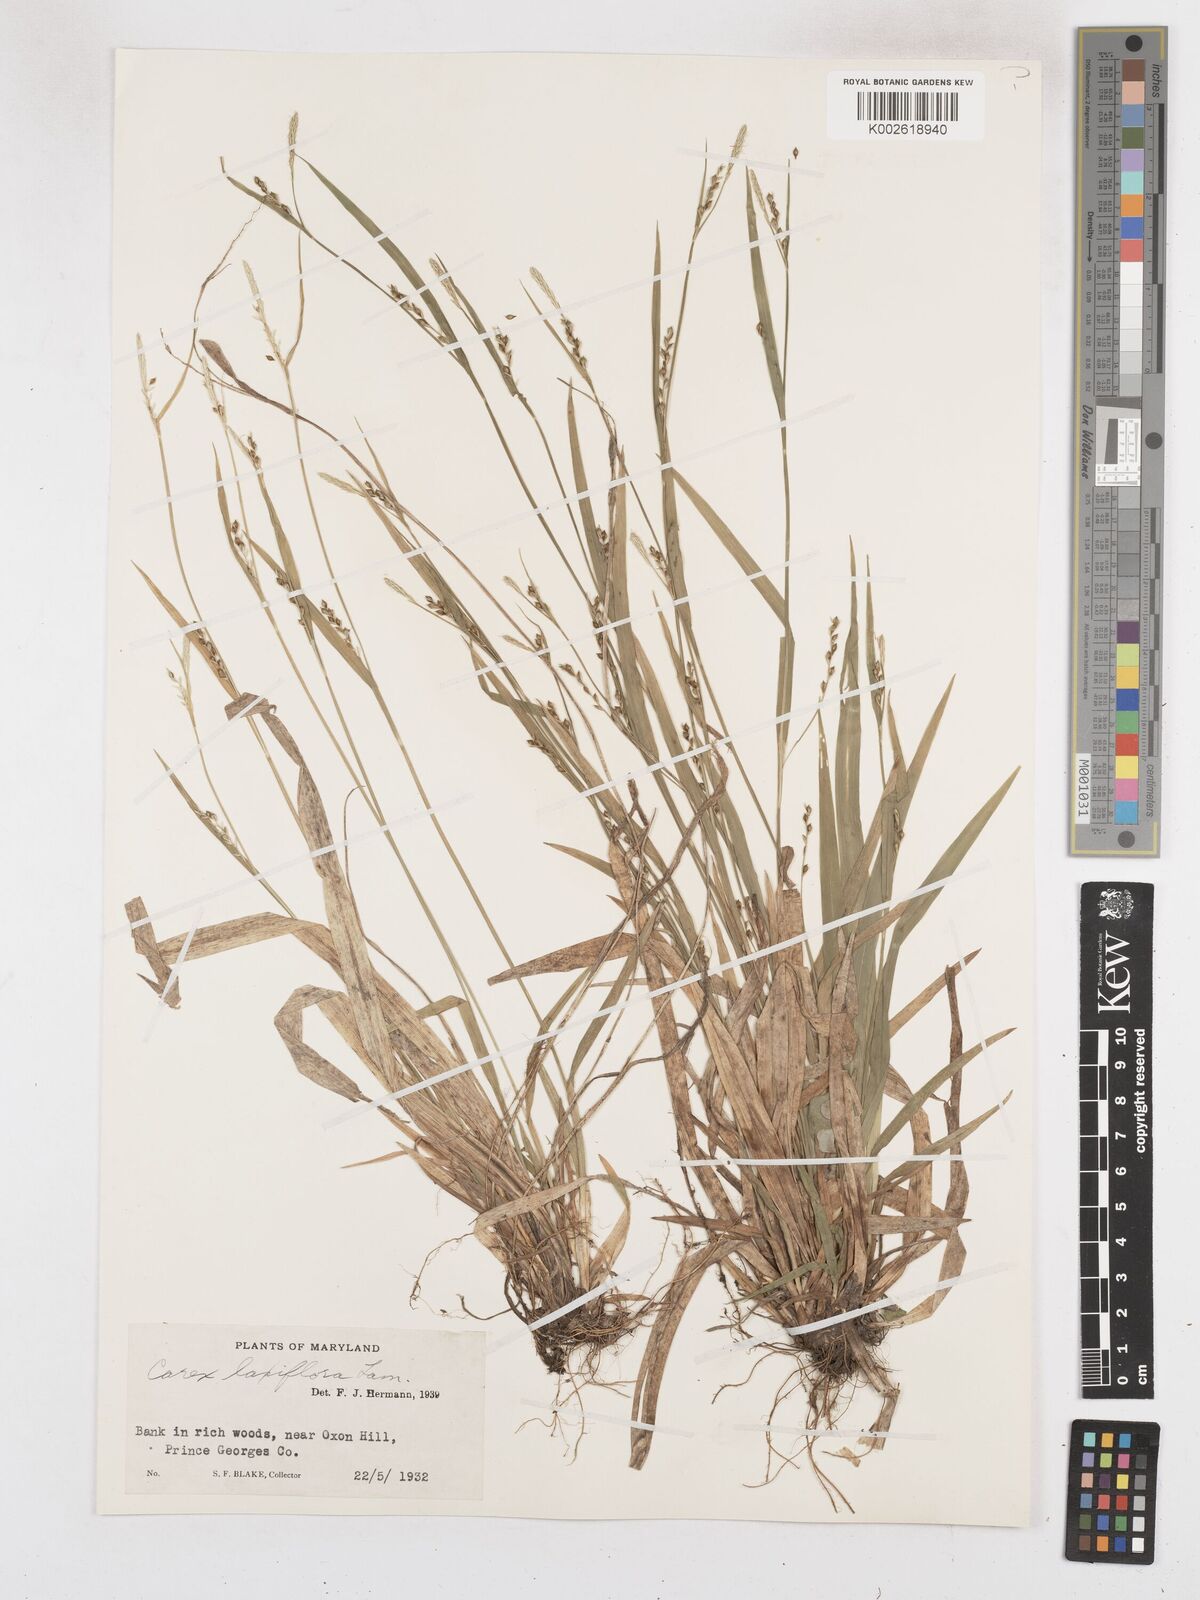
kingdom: Plantae
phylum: Tracheophyta
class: Liliopsida
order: Poales
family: Cyperaceae
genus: Carex
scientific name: Carex laxiflora
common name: Beech wood sedge
